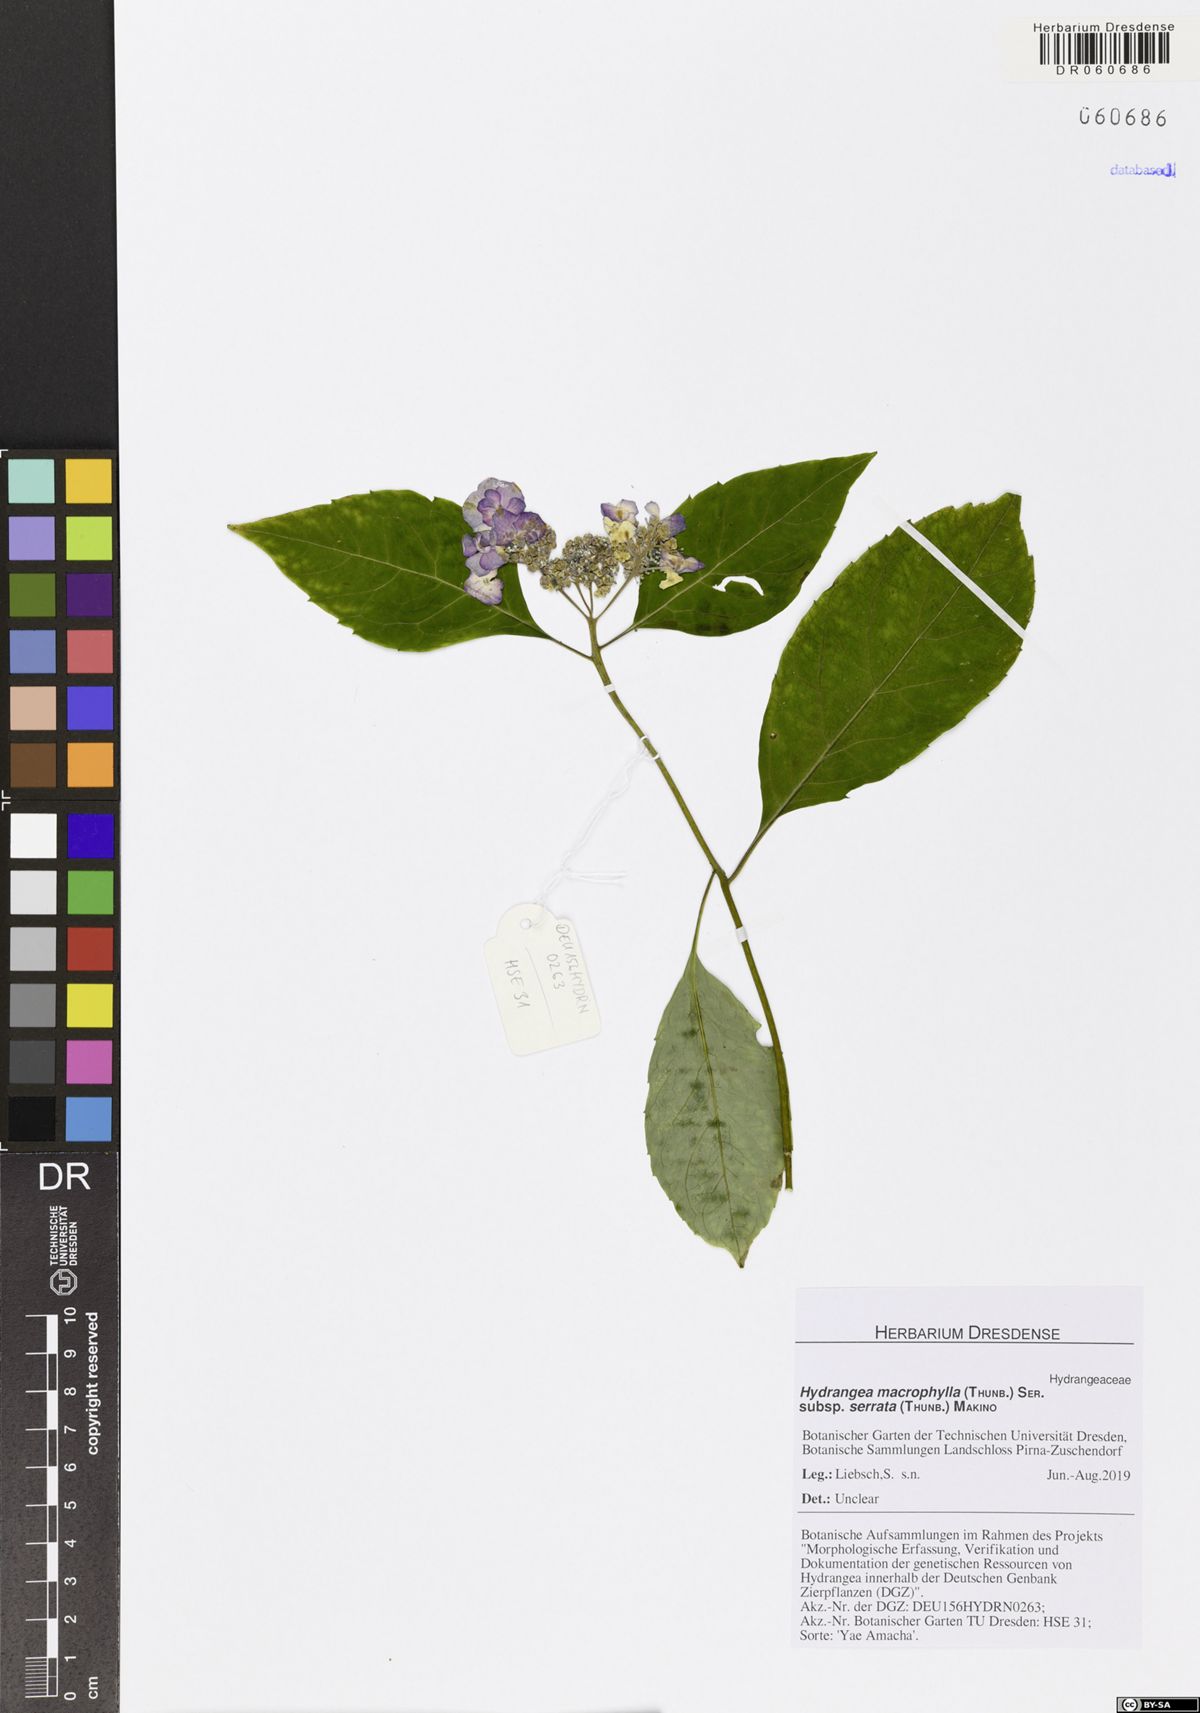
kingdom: Plantae
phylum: Tracheophyta
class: Magnoliopsida
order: Cornales
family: Hydrangeaceae
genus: Hydrangea
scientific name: Hydrangea serrata
